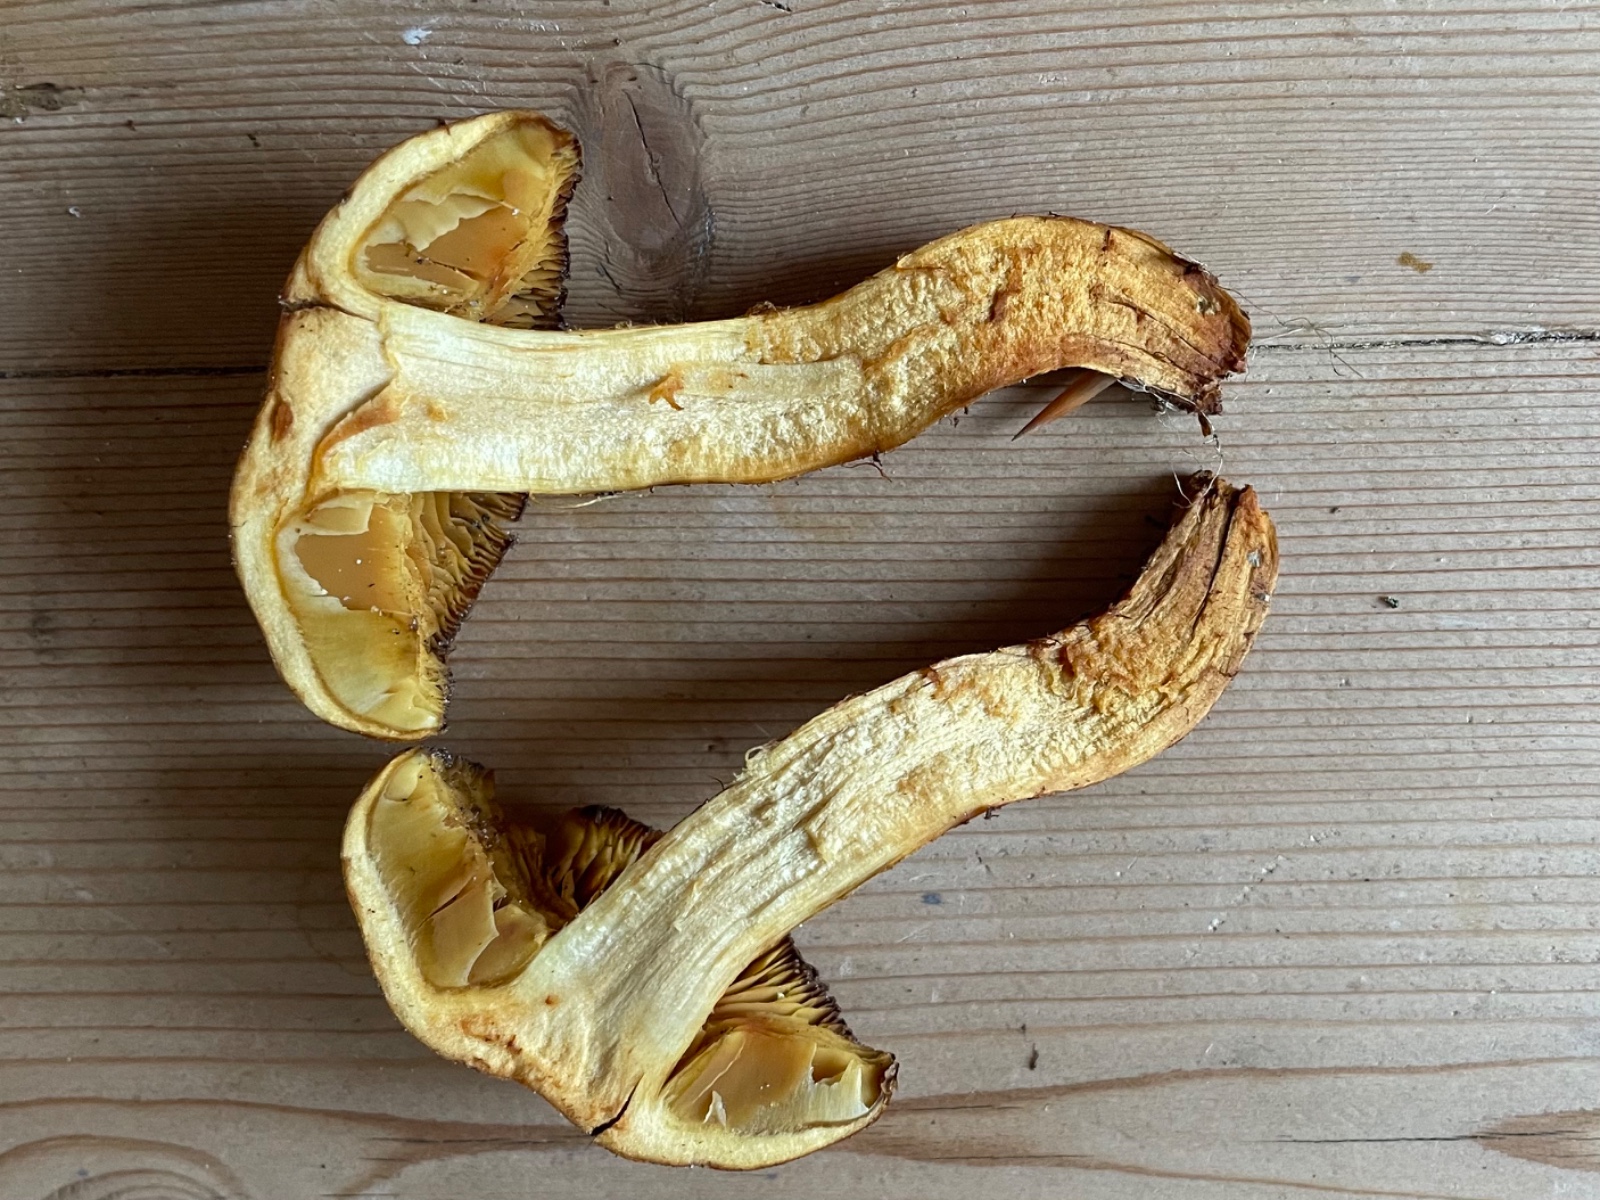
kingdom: Fungi
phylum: Basidiomycota
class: Agaricomycetes
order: Agaricales
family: Cortinariaceae
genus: Aureonarius
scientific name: Aureonarius limonius
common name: orangegul slørhat
